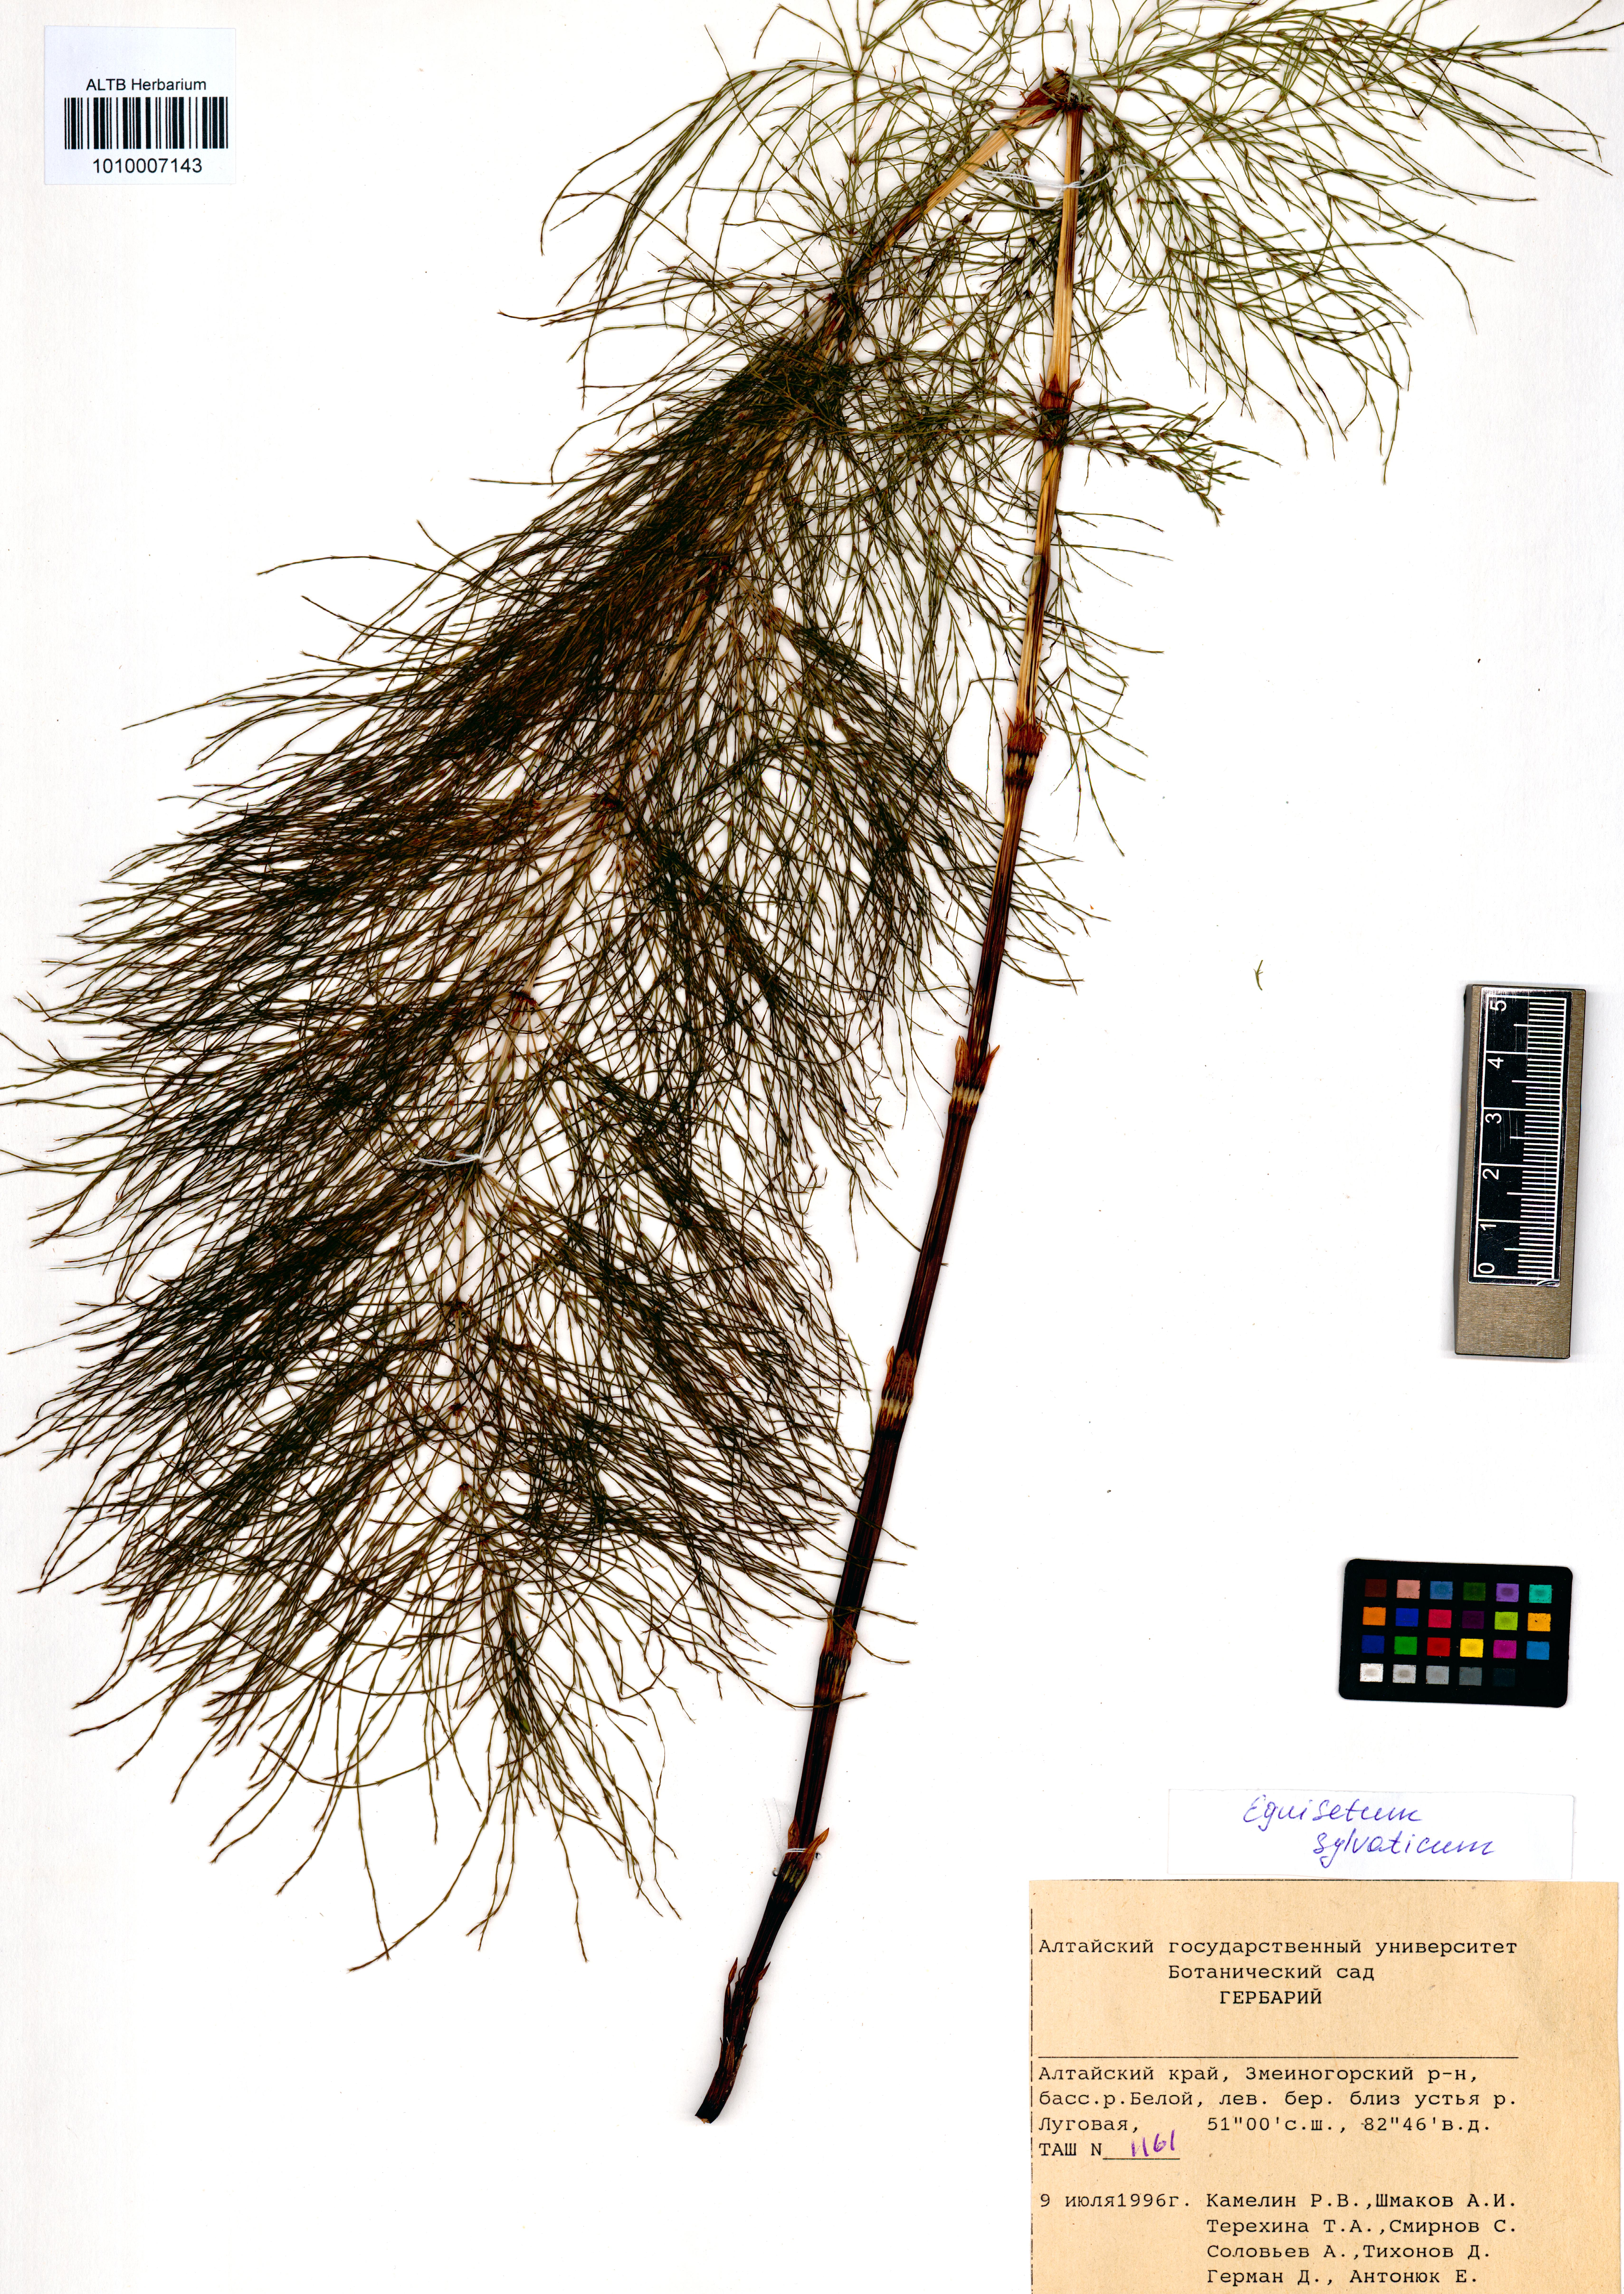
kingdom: Plantae
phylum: Tracheophyta
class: Polypodiopsida
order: Equisetales
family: Equisetaceae
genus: Equisetum
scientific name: Equisetum sylvaticum
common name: Wood horsetail
